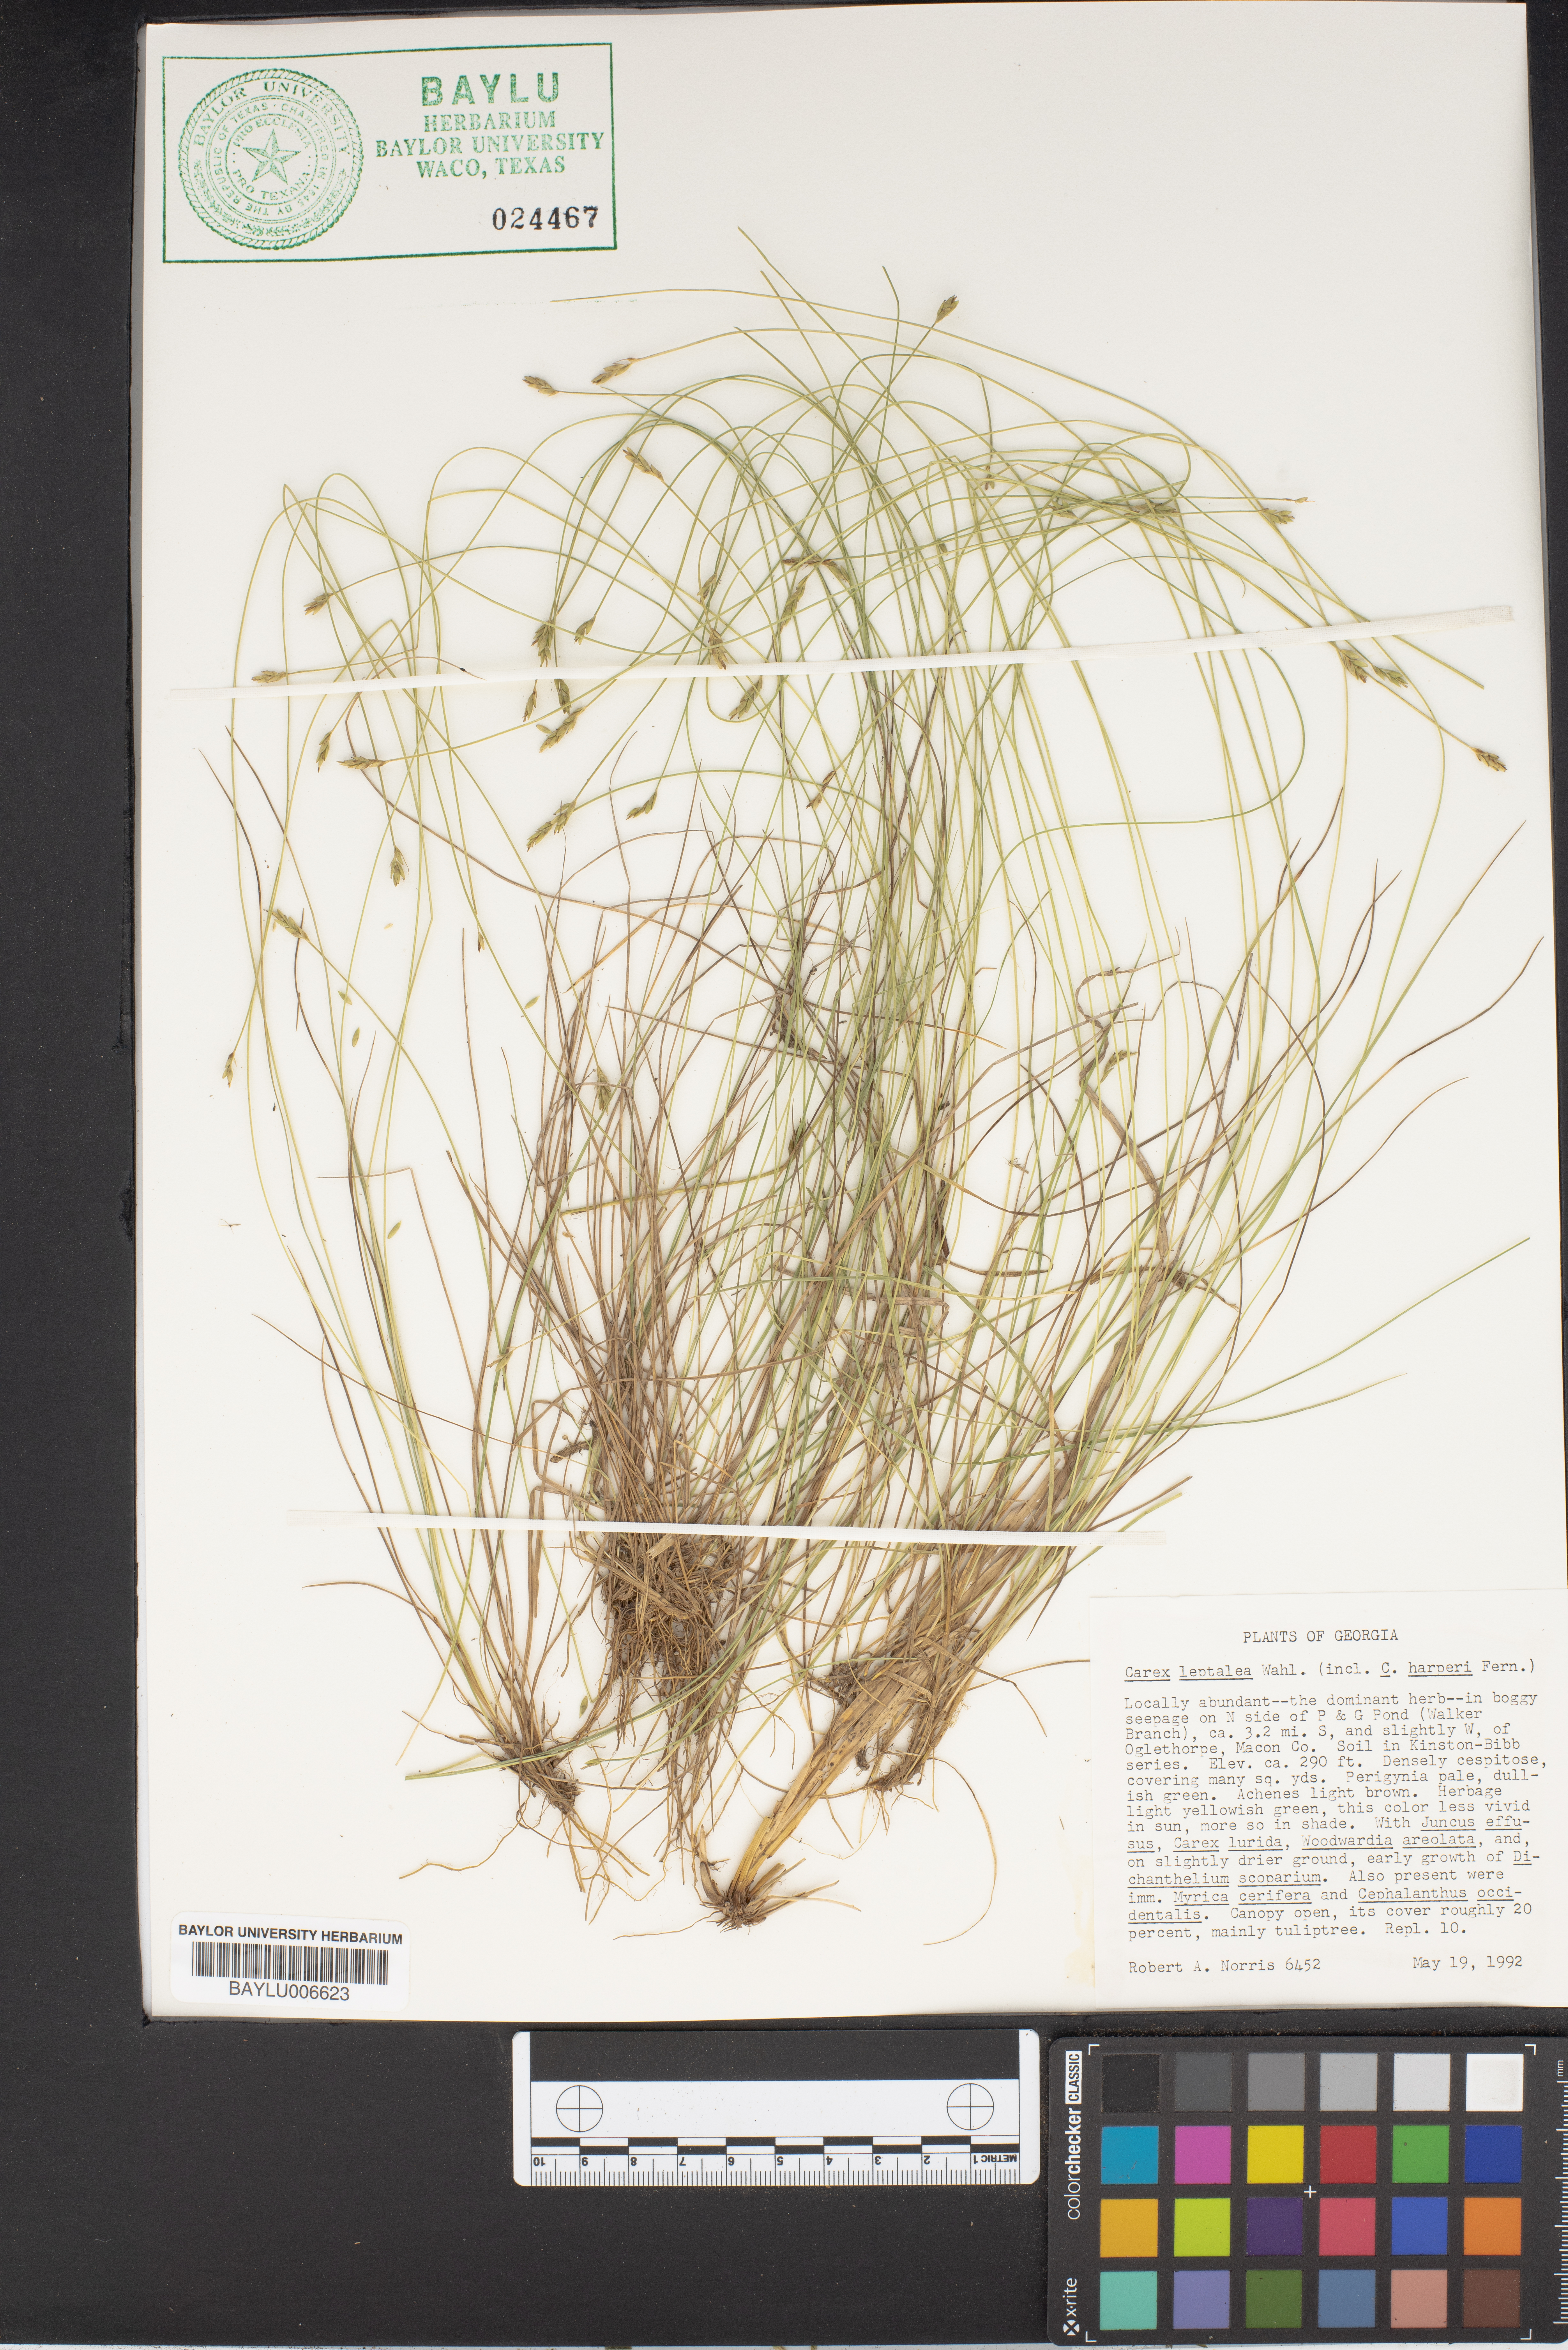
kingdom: Plantae
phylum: Tracheophyta
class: Liliopsida
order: Poales
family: Cyperaceae
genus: Carex
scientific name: Carex leptalea
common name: Bristly-stalked sedge
